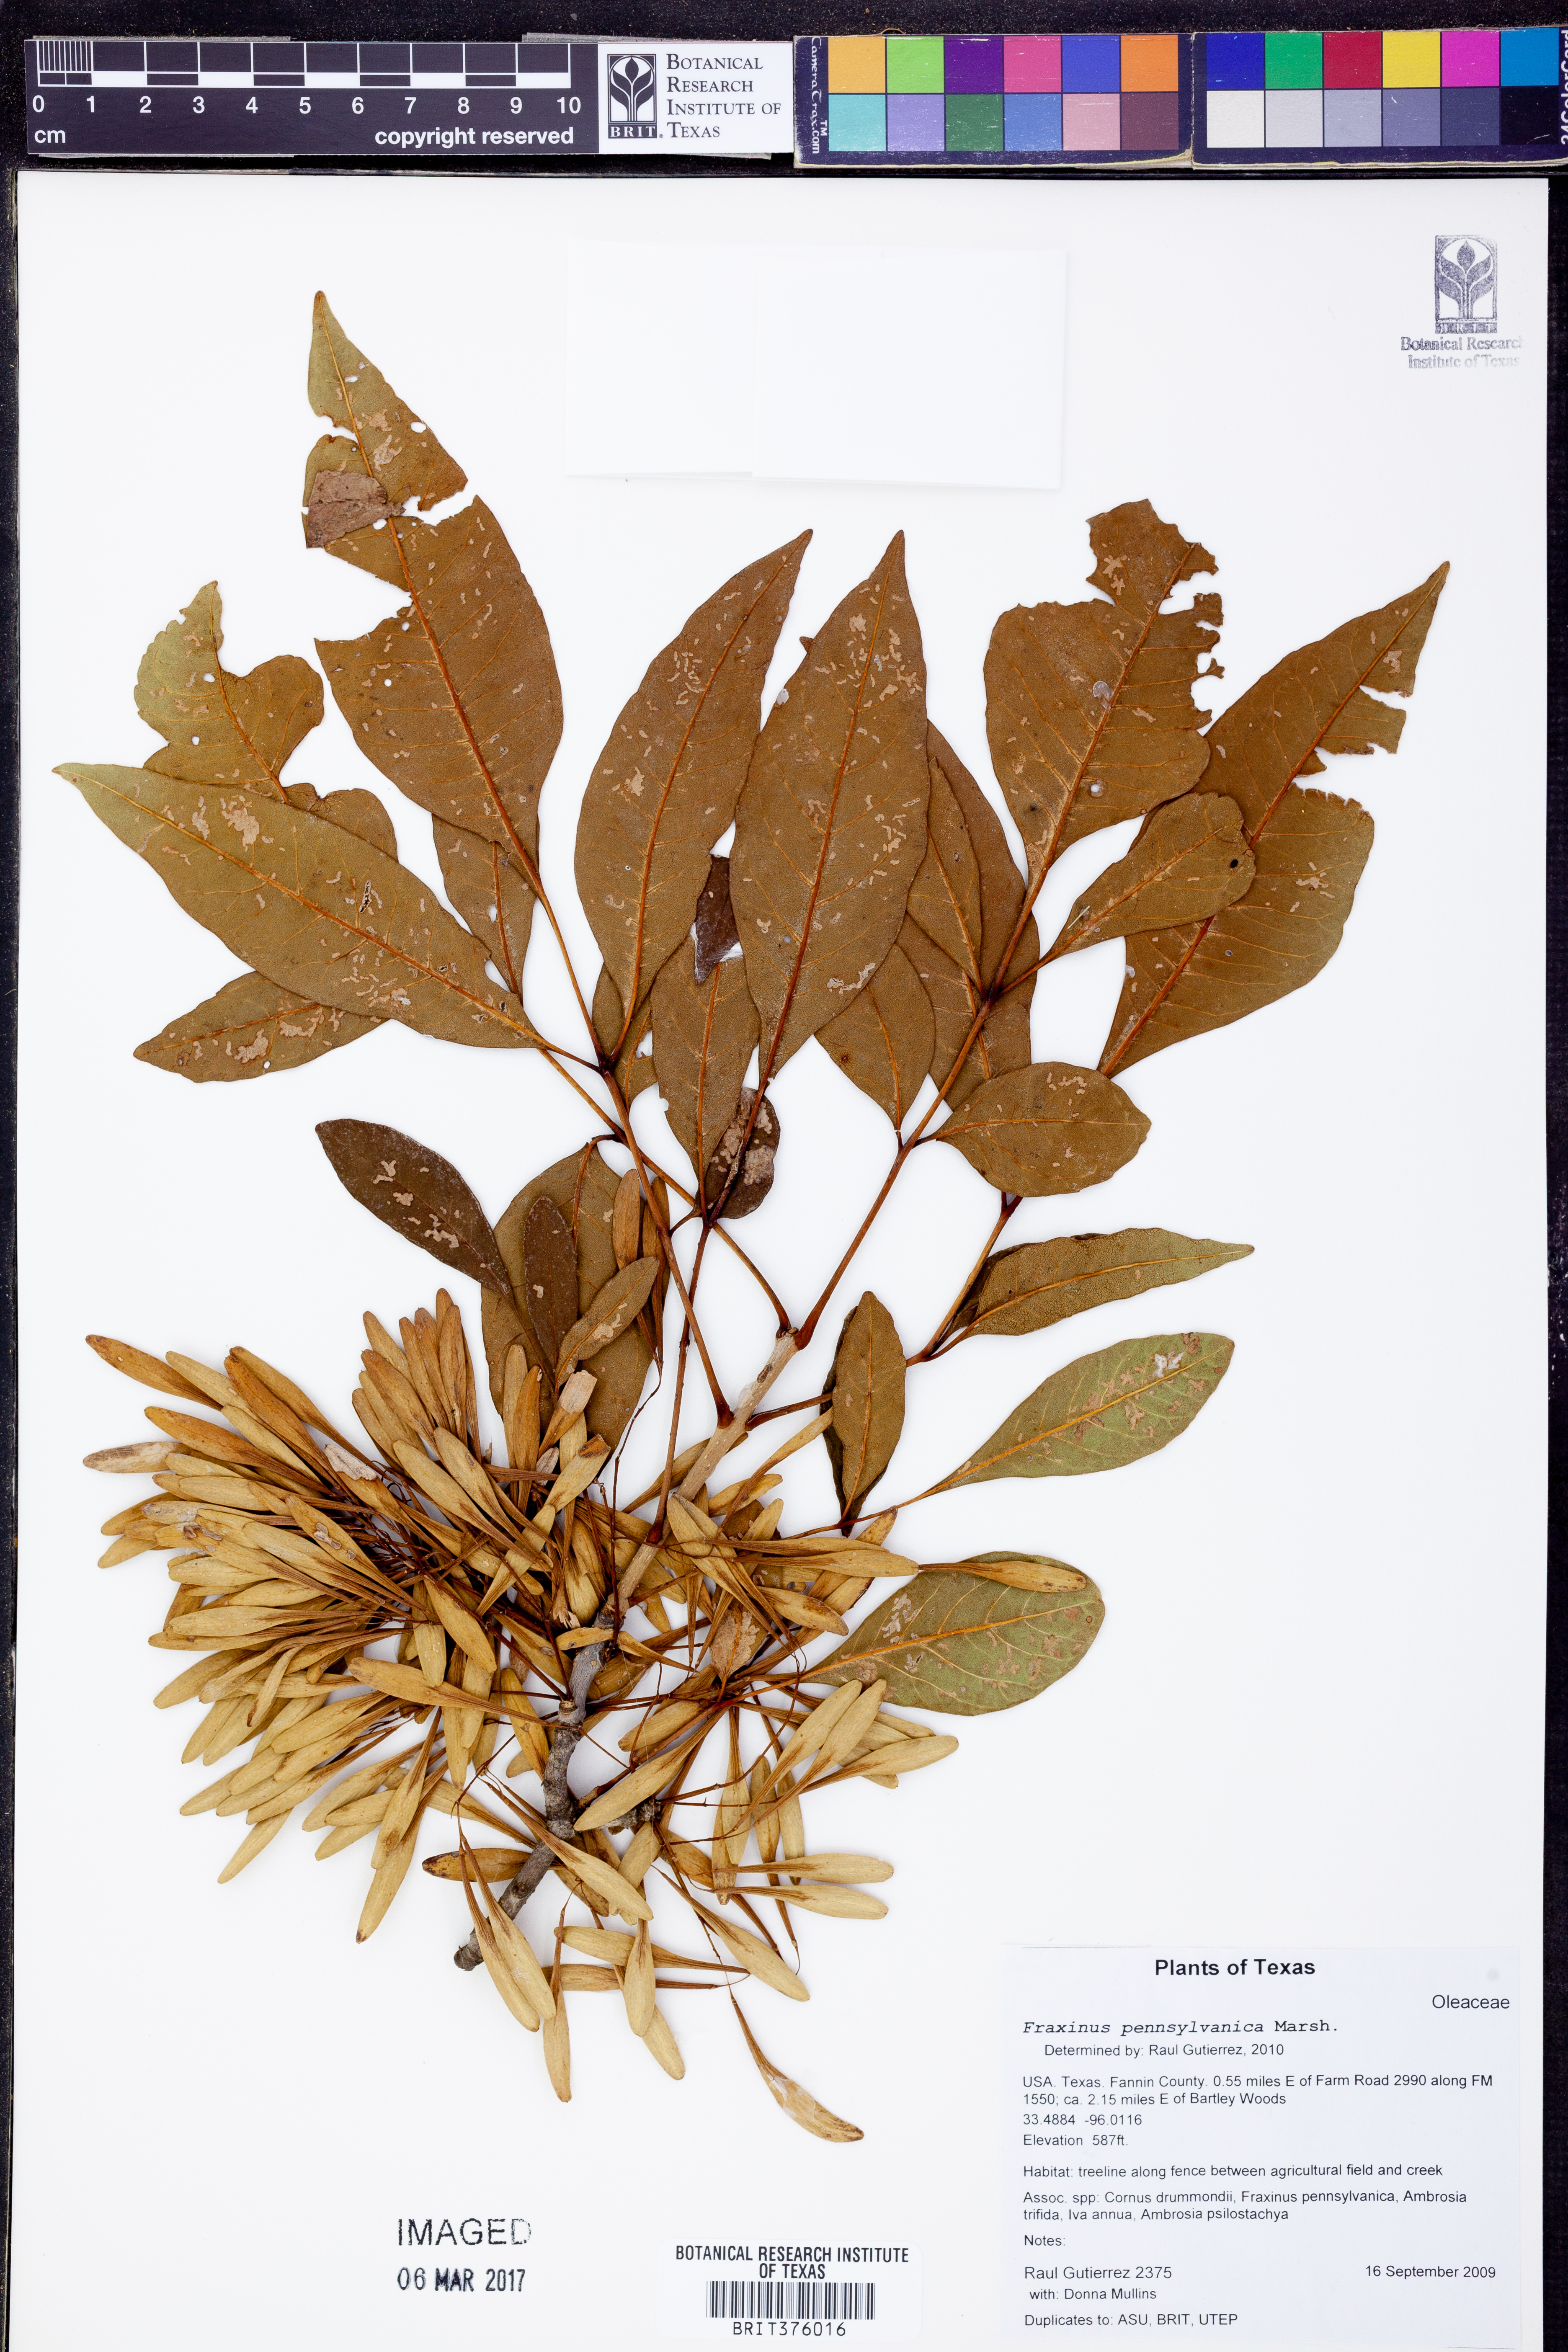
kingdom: Plantae
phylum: Tracheophyta
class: Magnoliopsida
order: Lamiales
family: Oleaceae
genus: Fraxinus
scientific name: Fraxinus pennsylvanica
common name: Green ash
